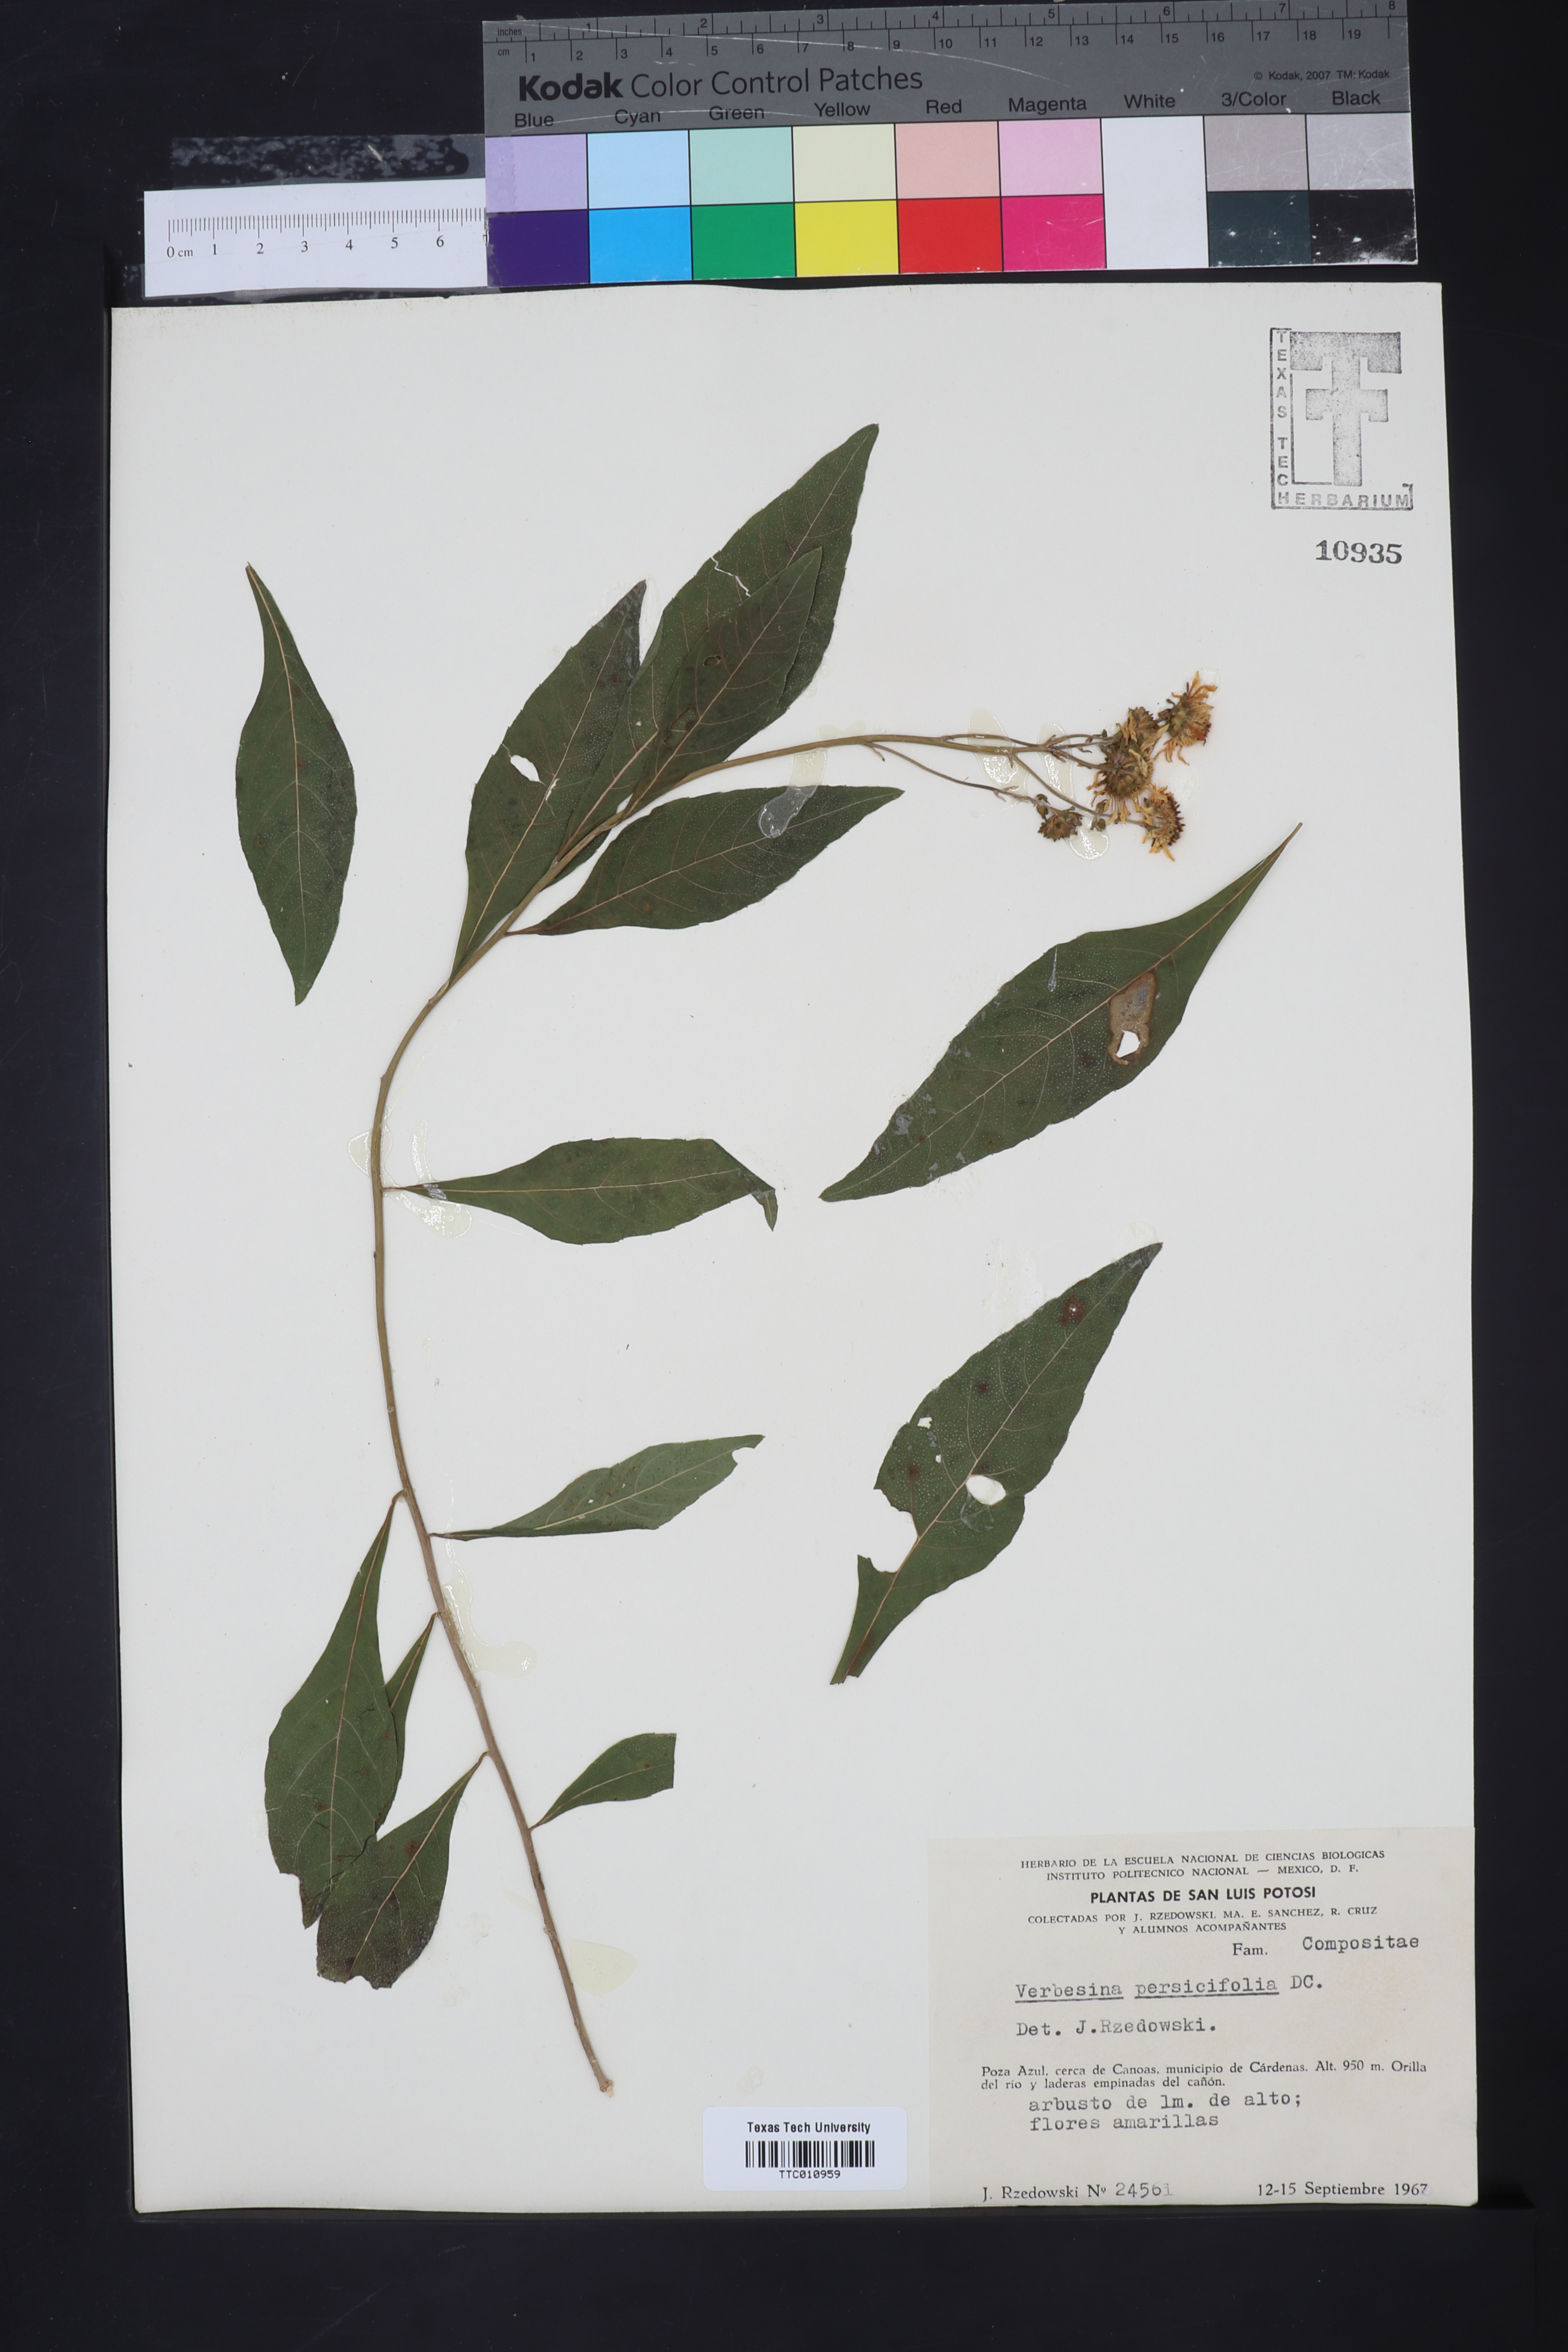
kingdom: Plantae
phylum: Tracheophyta
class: Magnoliopsida
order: Asterales
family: Asteraceae
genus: Verbesina
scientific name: Verbesina persicifolia
